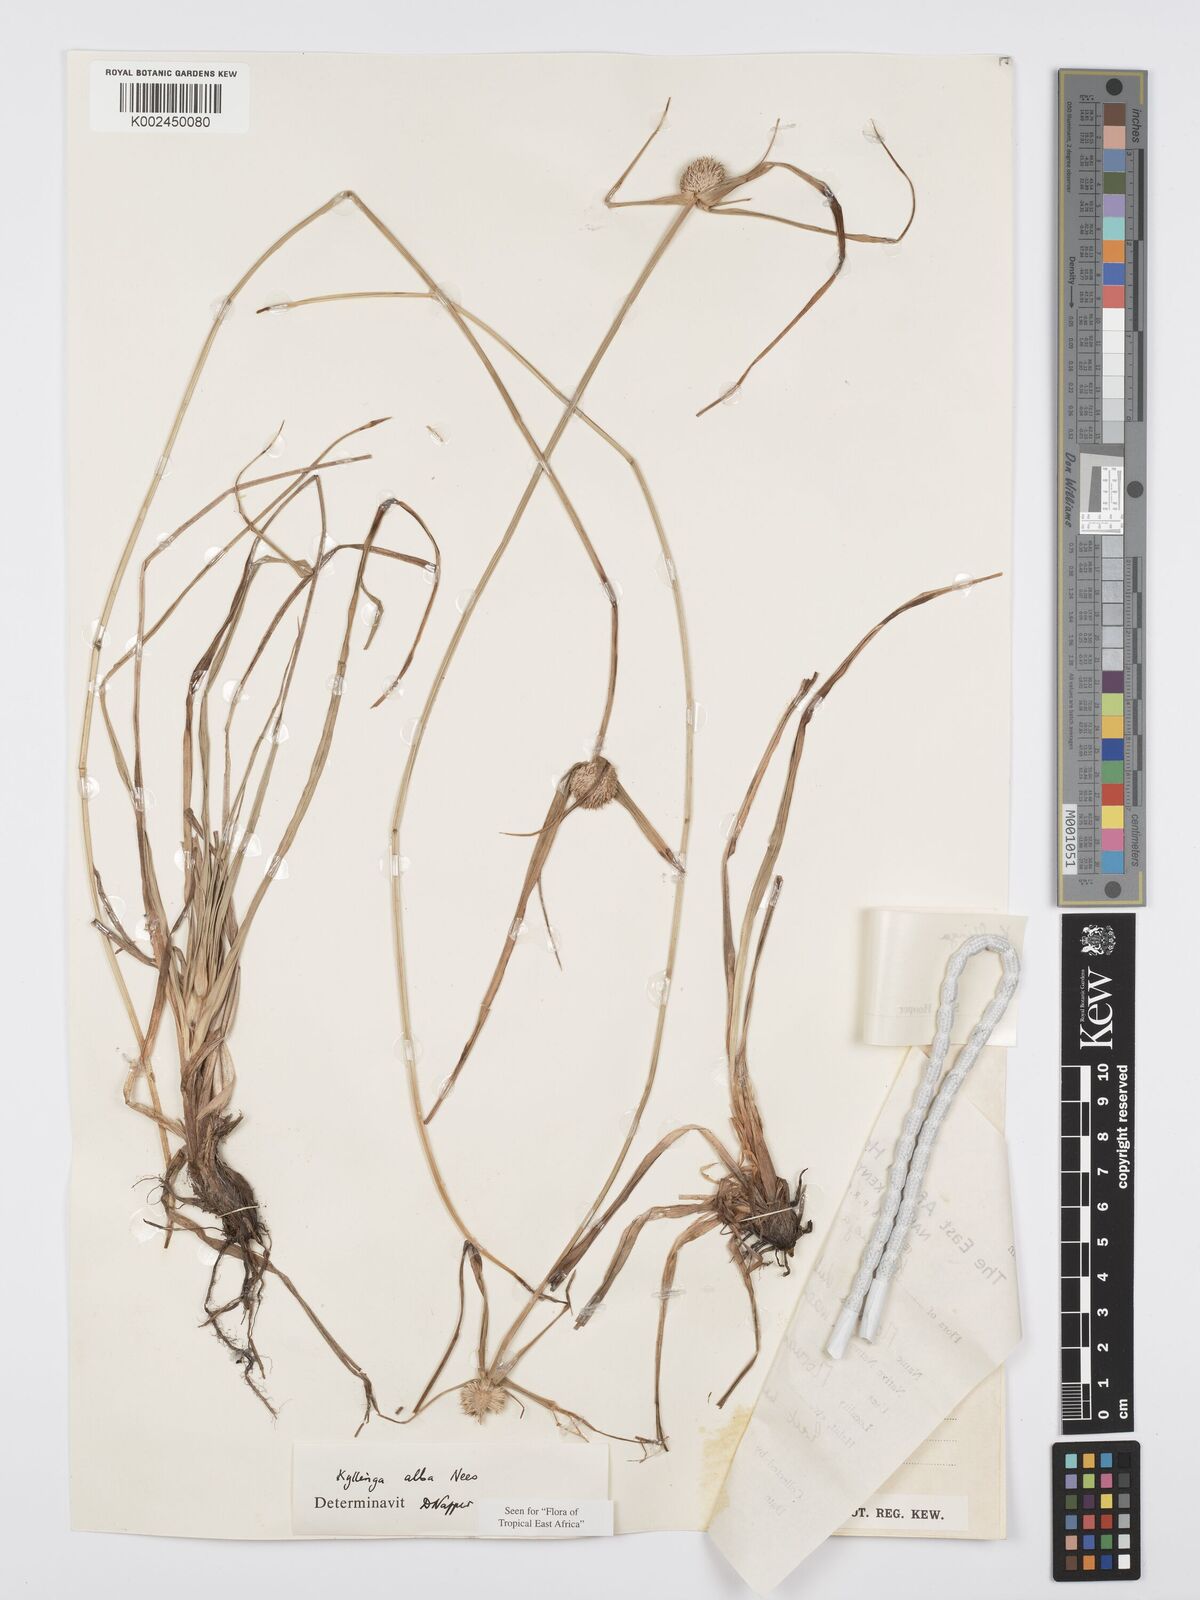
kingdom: Plantae
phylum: Tracheophyta
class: Liliopsida
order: Poales
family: Cyperaceae
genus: Cyperus
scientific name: Cyperus
